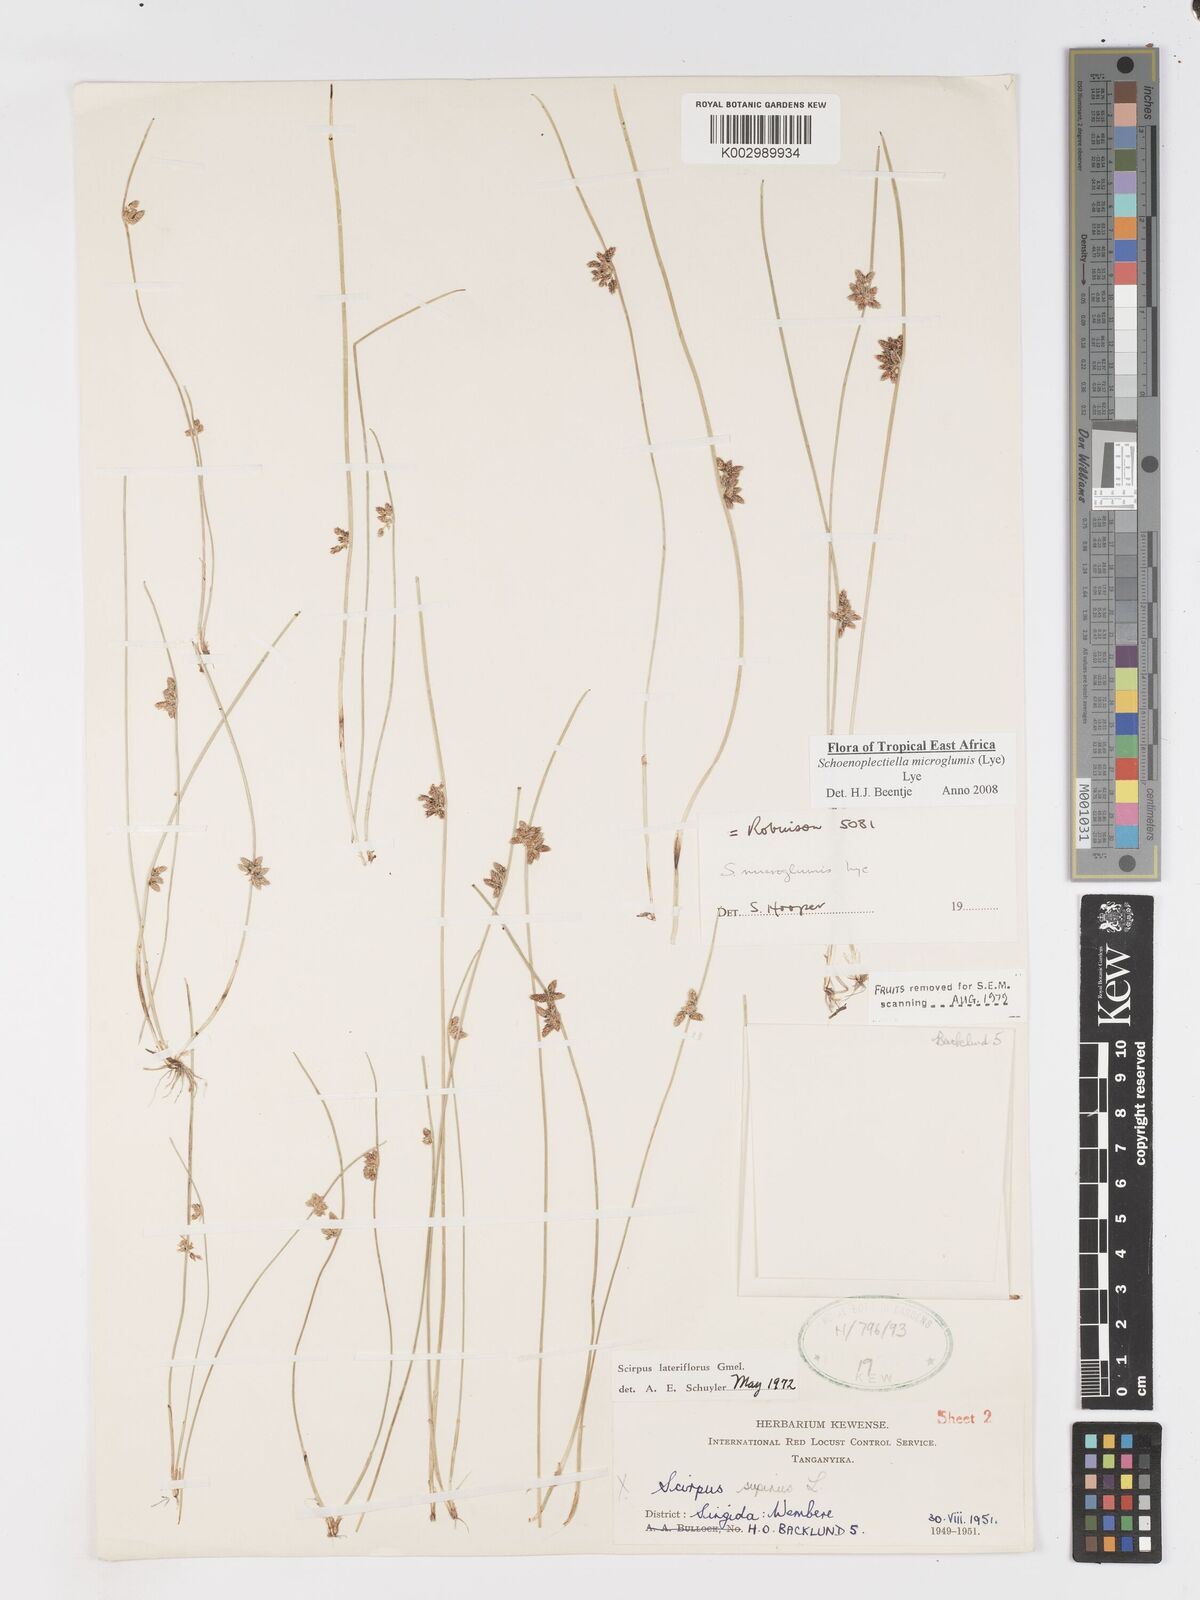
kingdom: Plantae
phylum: Tracheophyta
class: Liliopsida
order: Poales
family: Cyperaceae
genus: Schoenoplectiella
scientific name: Schoenoplectiella microglumis
